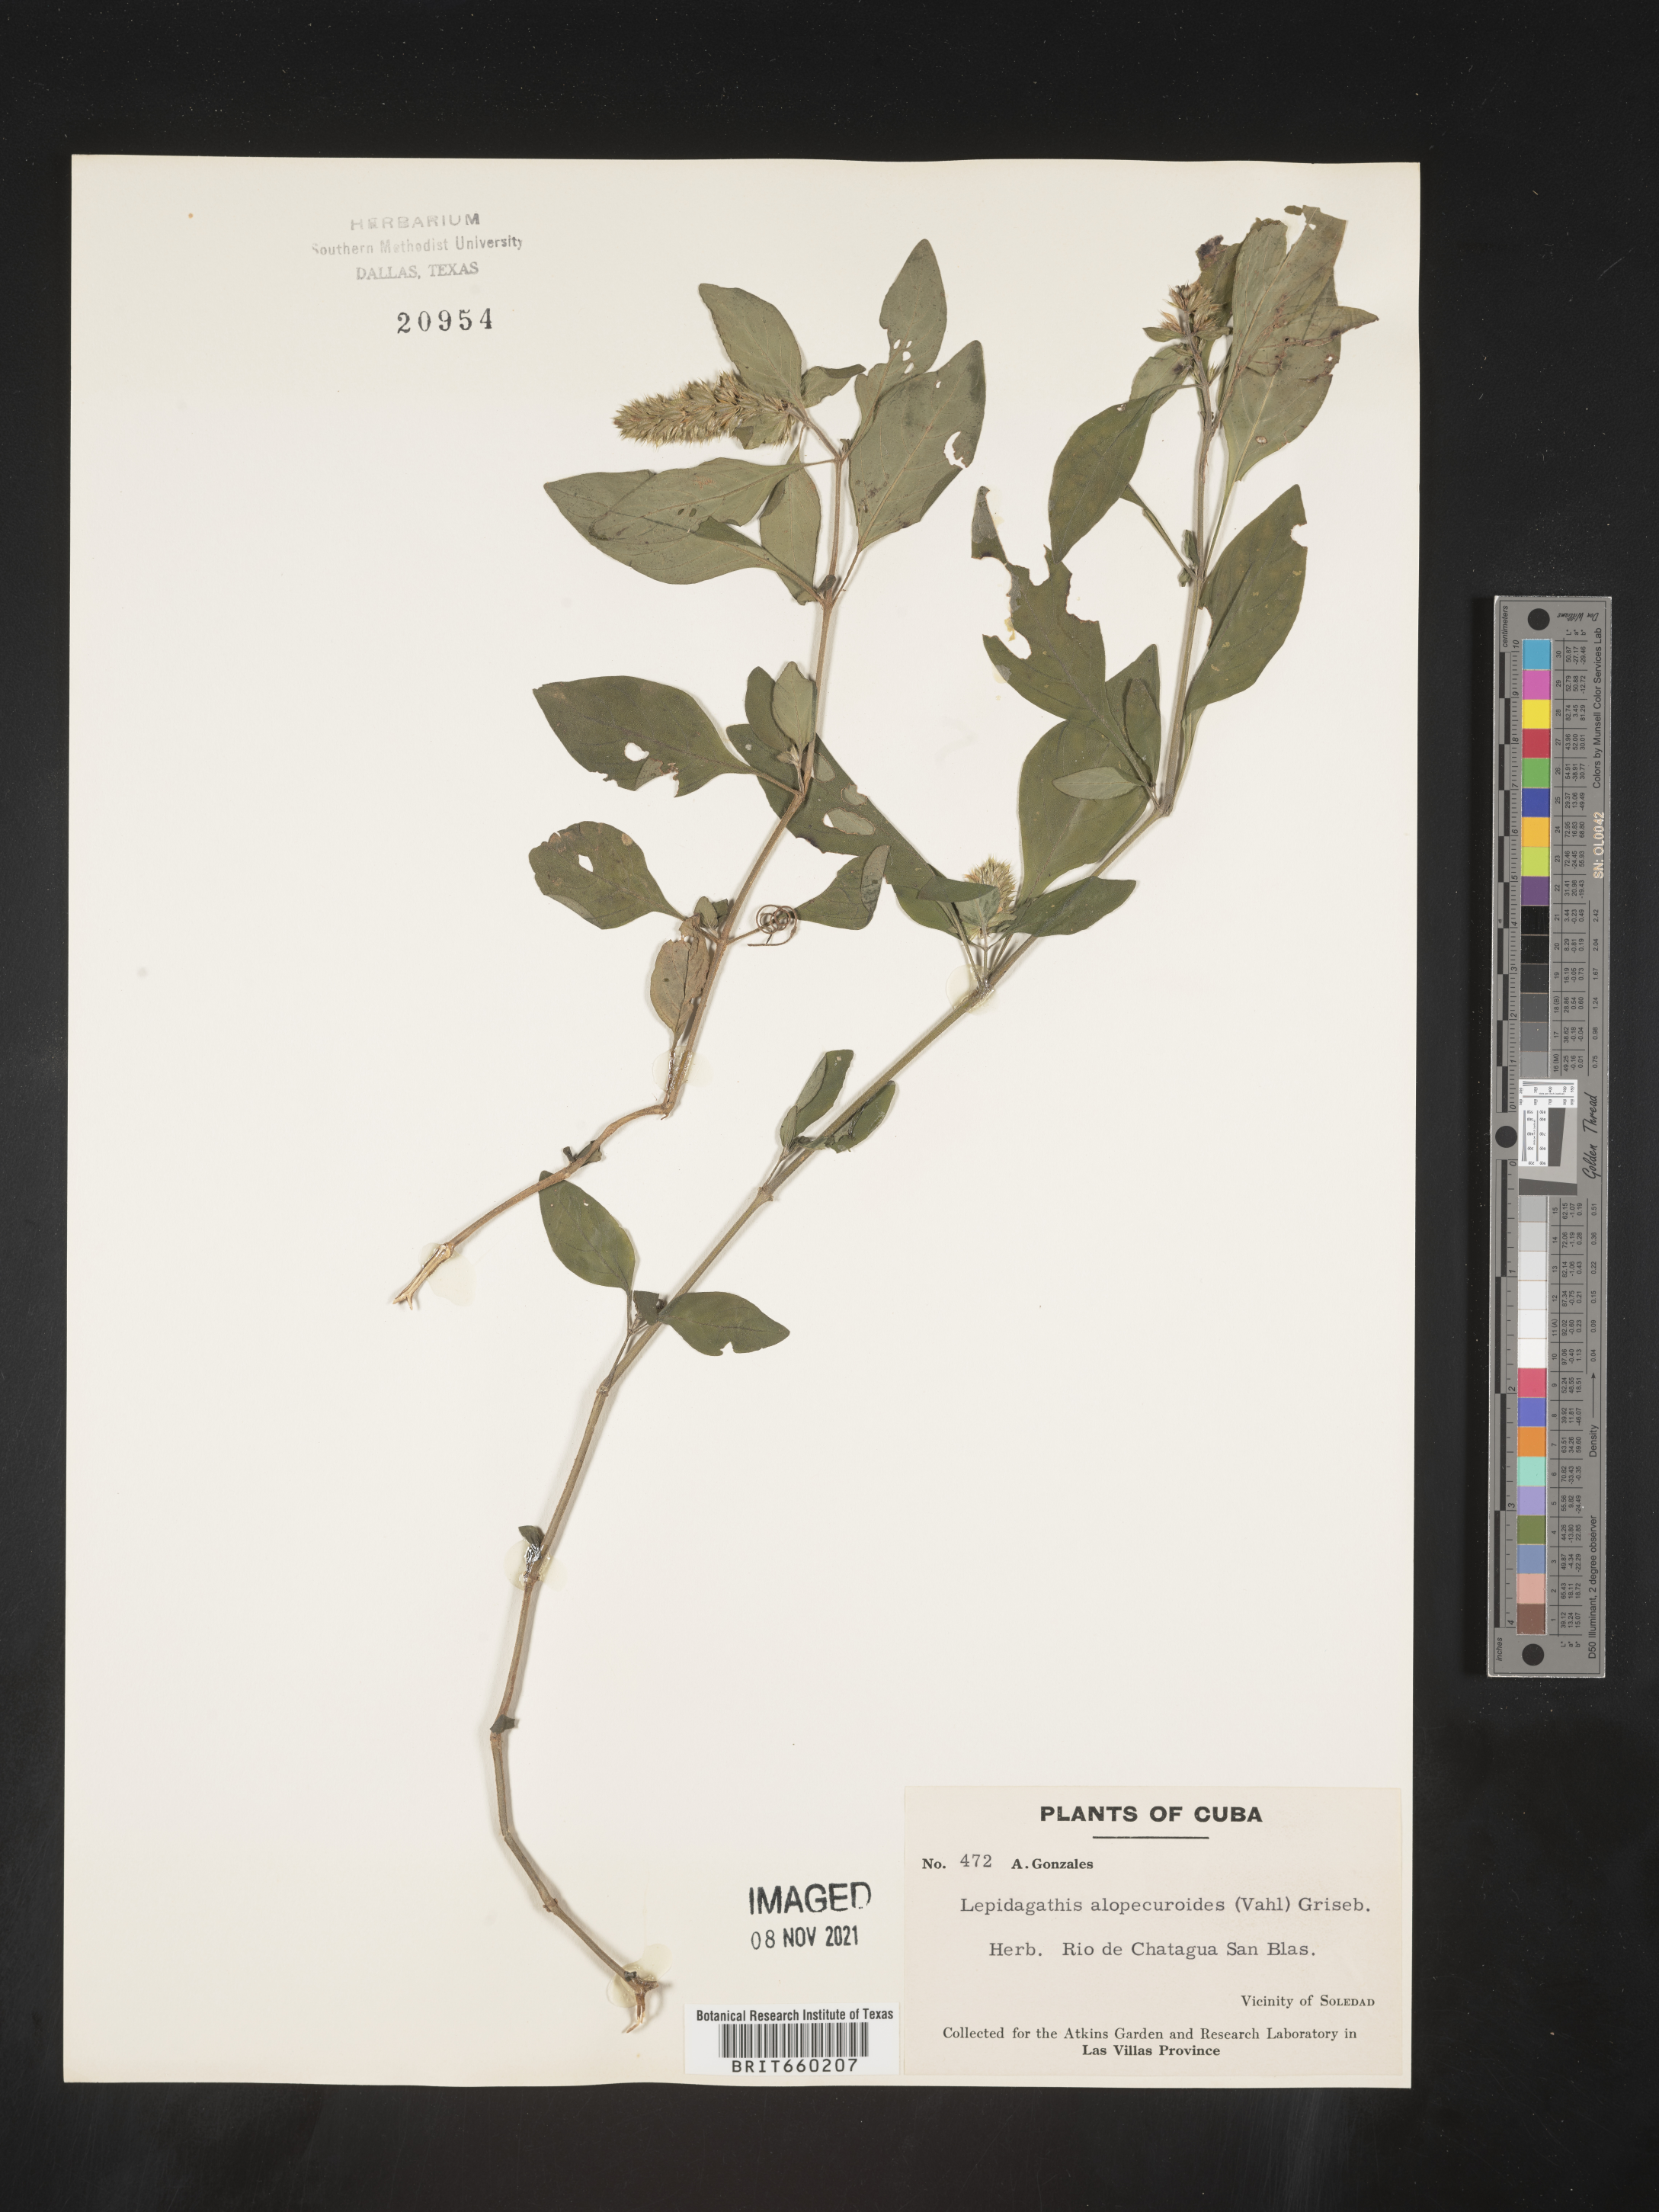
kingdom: Plantae
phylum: Tracheophyta
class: Magnoliopsida
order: Lamiales
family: Acanthaceae
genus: Lepidagathis
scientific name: Lepidagathis
